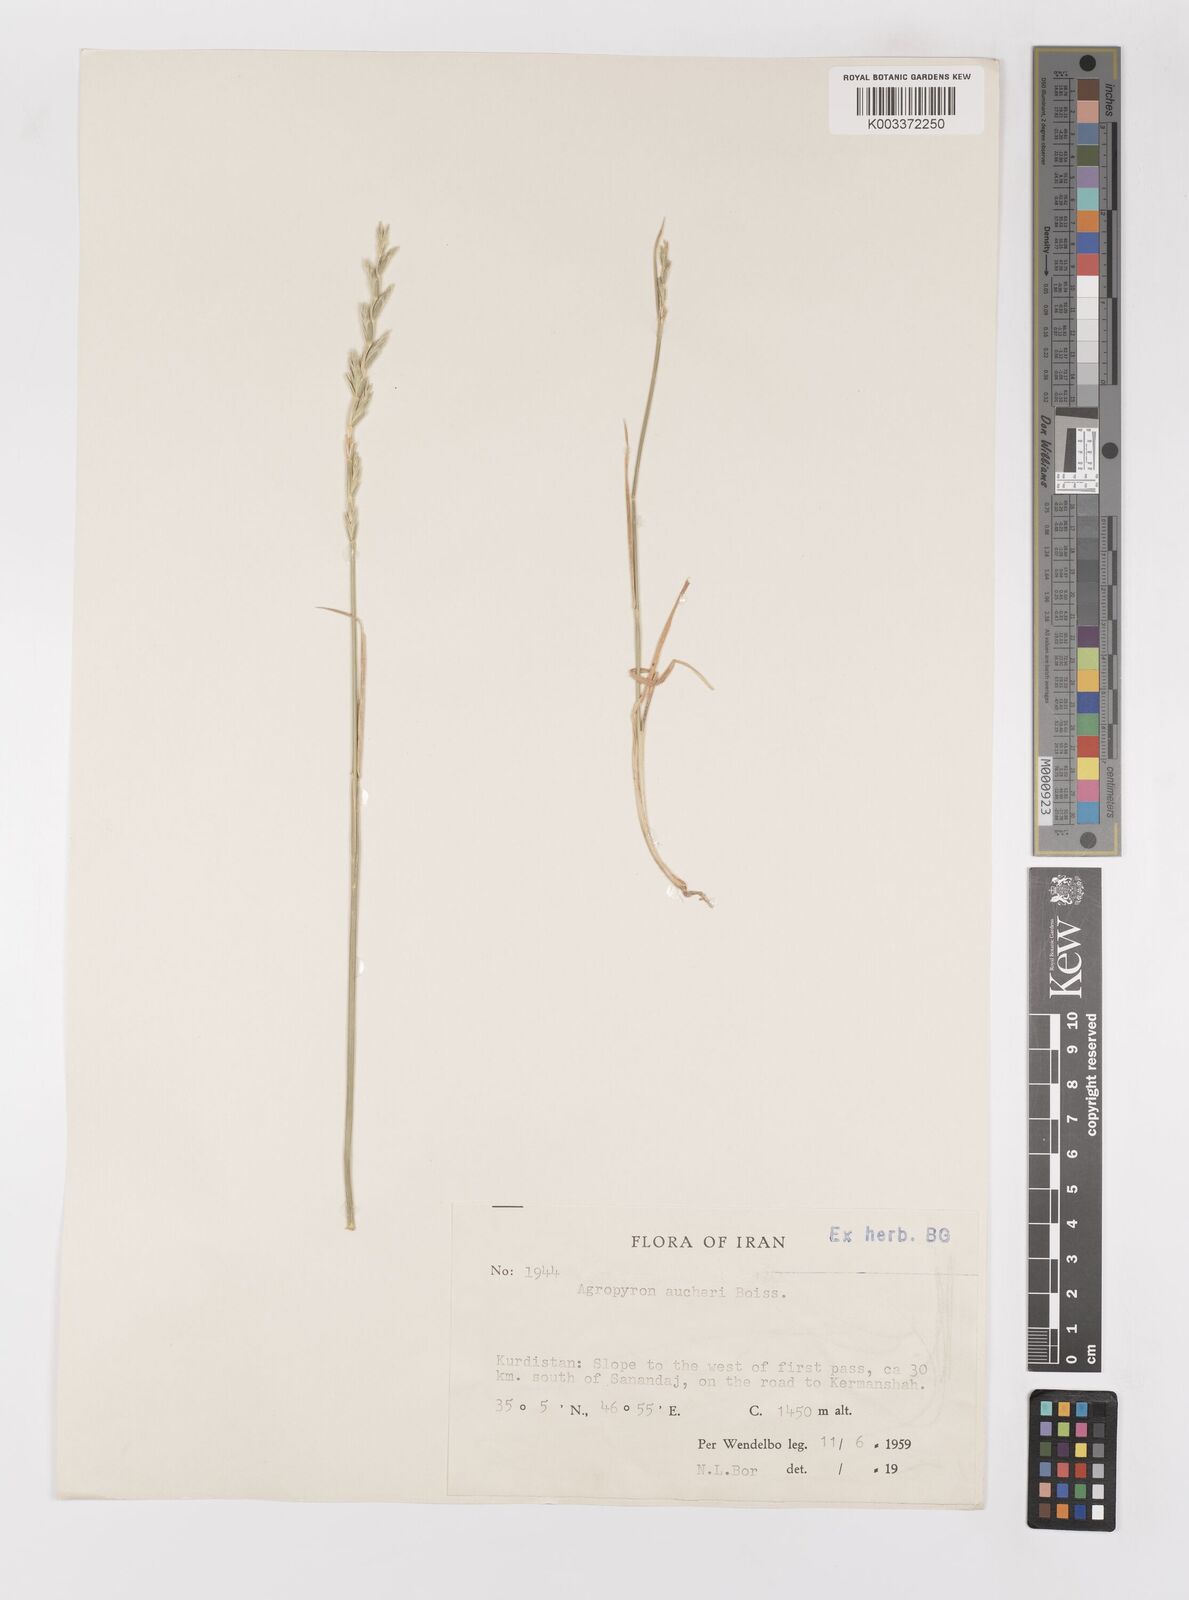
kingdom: Plantae
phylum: Tracheophyta
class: Liliopsida
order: Poales
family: Poaceae
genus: Thinopyrum
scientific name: Thinopyrum intermedium
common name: Intermediate wheatgrass
